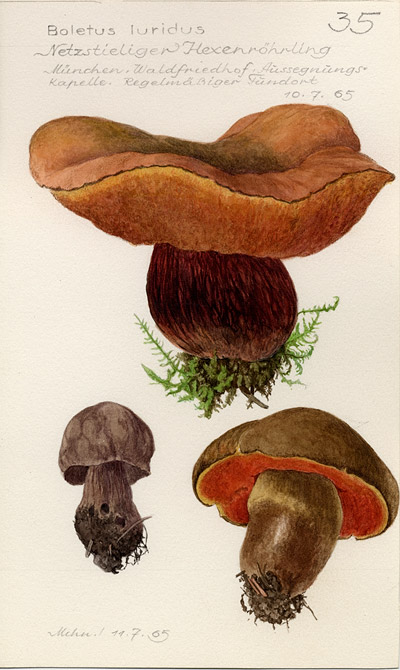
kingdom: Fungi
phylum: Basidiomycota
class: Agaricomycetes
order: Boletales
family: Boletaceae
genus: Suillellus
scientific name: Suillellus luridus
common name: Lurid bolete
